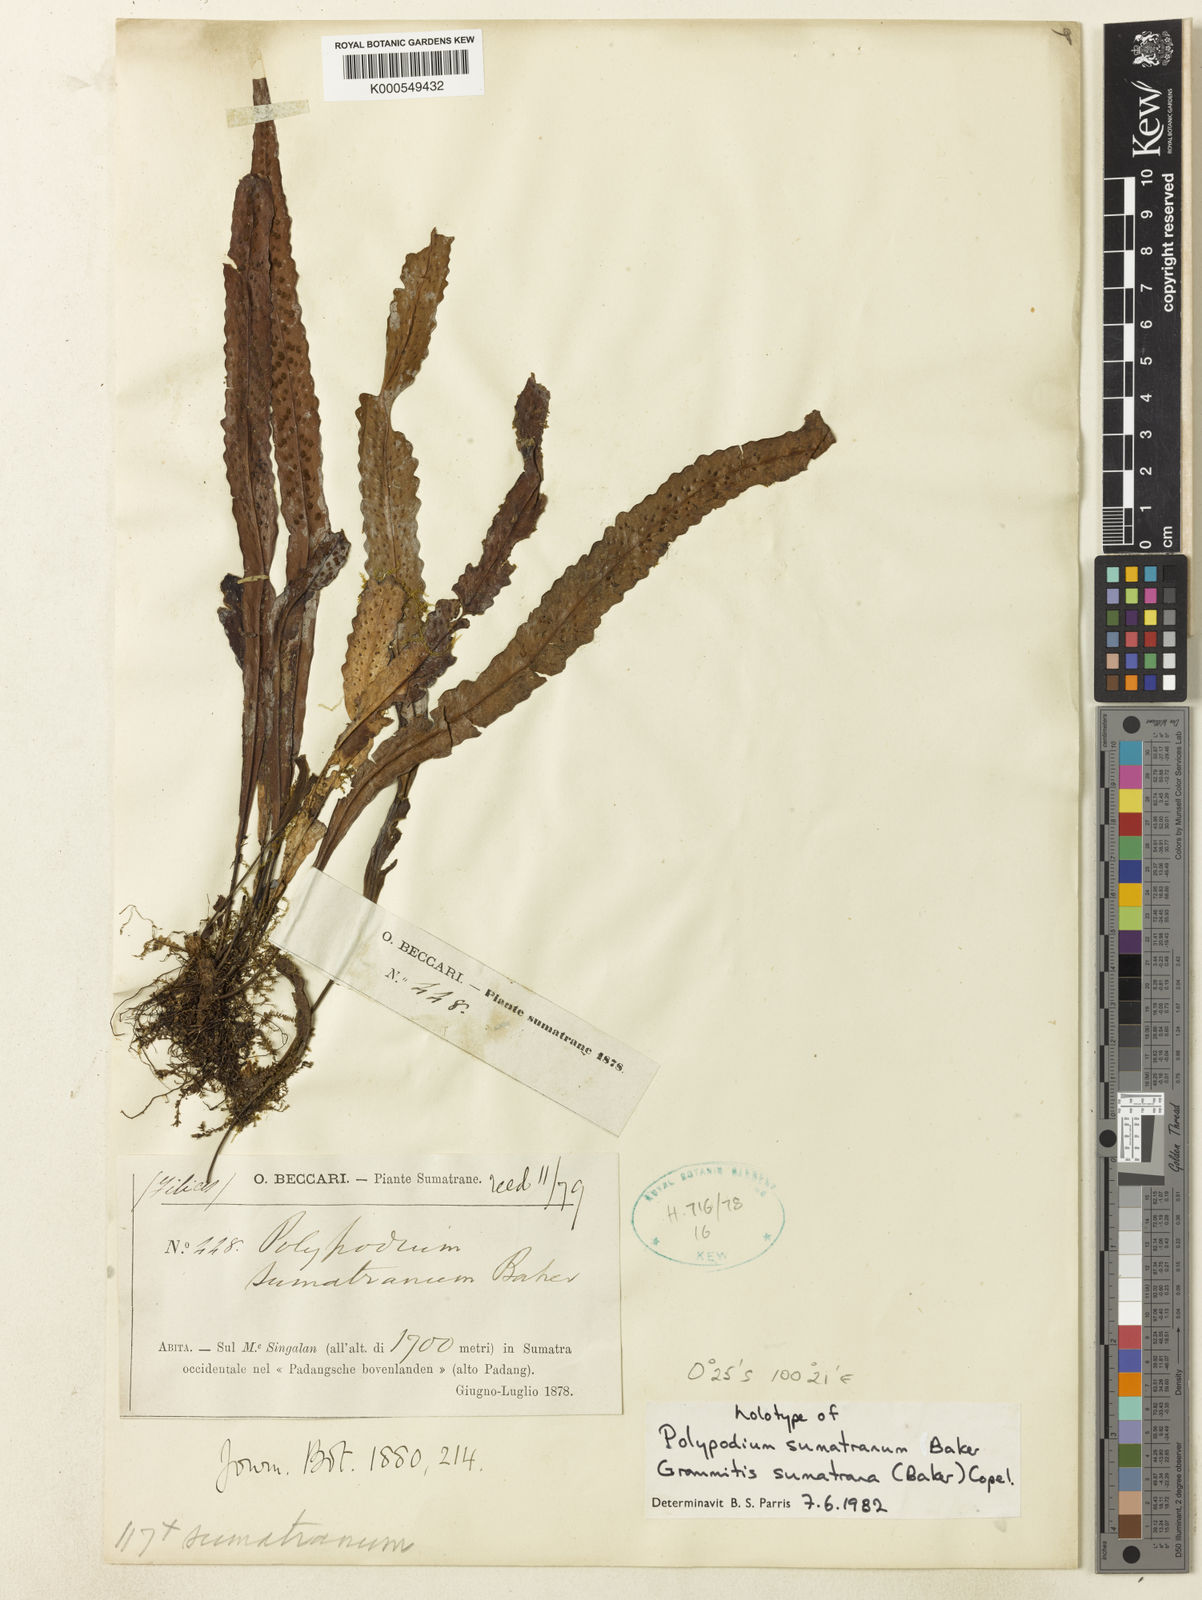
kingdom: Plantae
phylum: Tracheophyta
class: Polypodiopsida
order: Polypodiales
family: Polypodiaceae
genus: Oreogrammitis
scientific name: Oreogrammitis sumatrana
